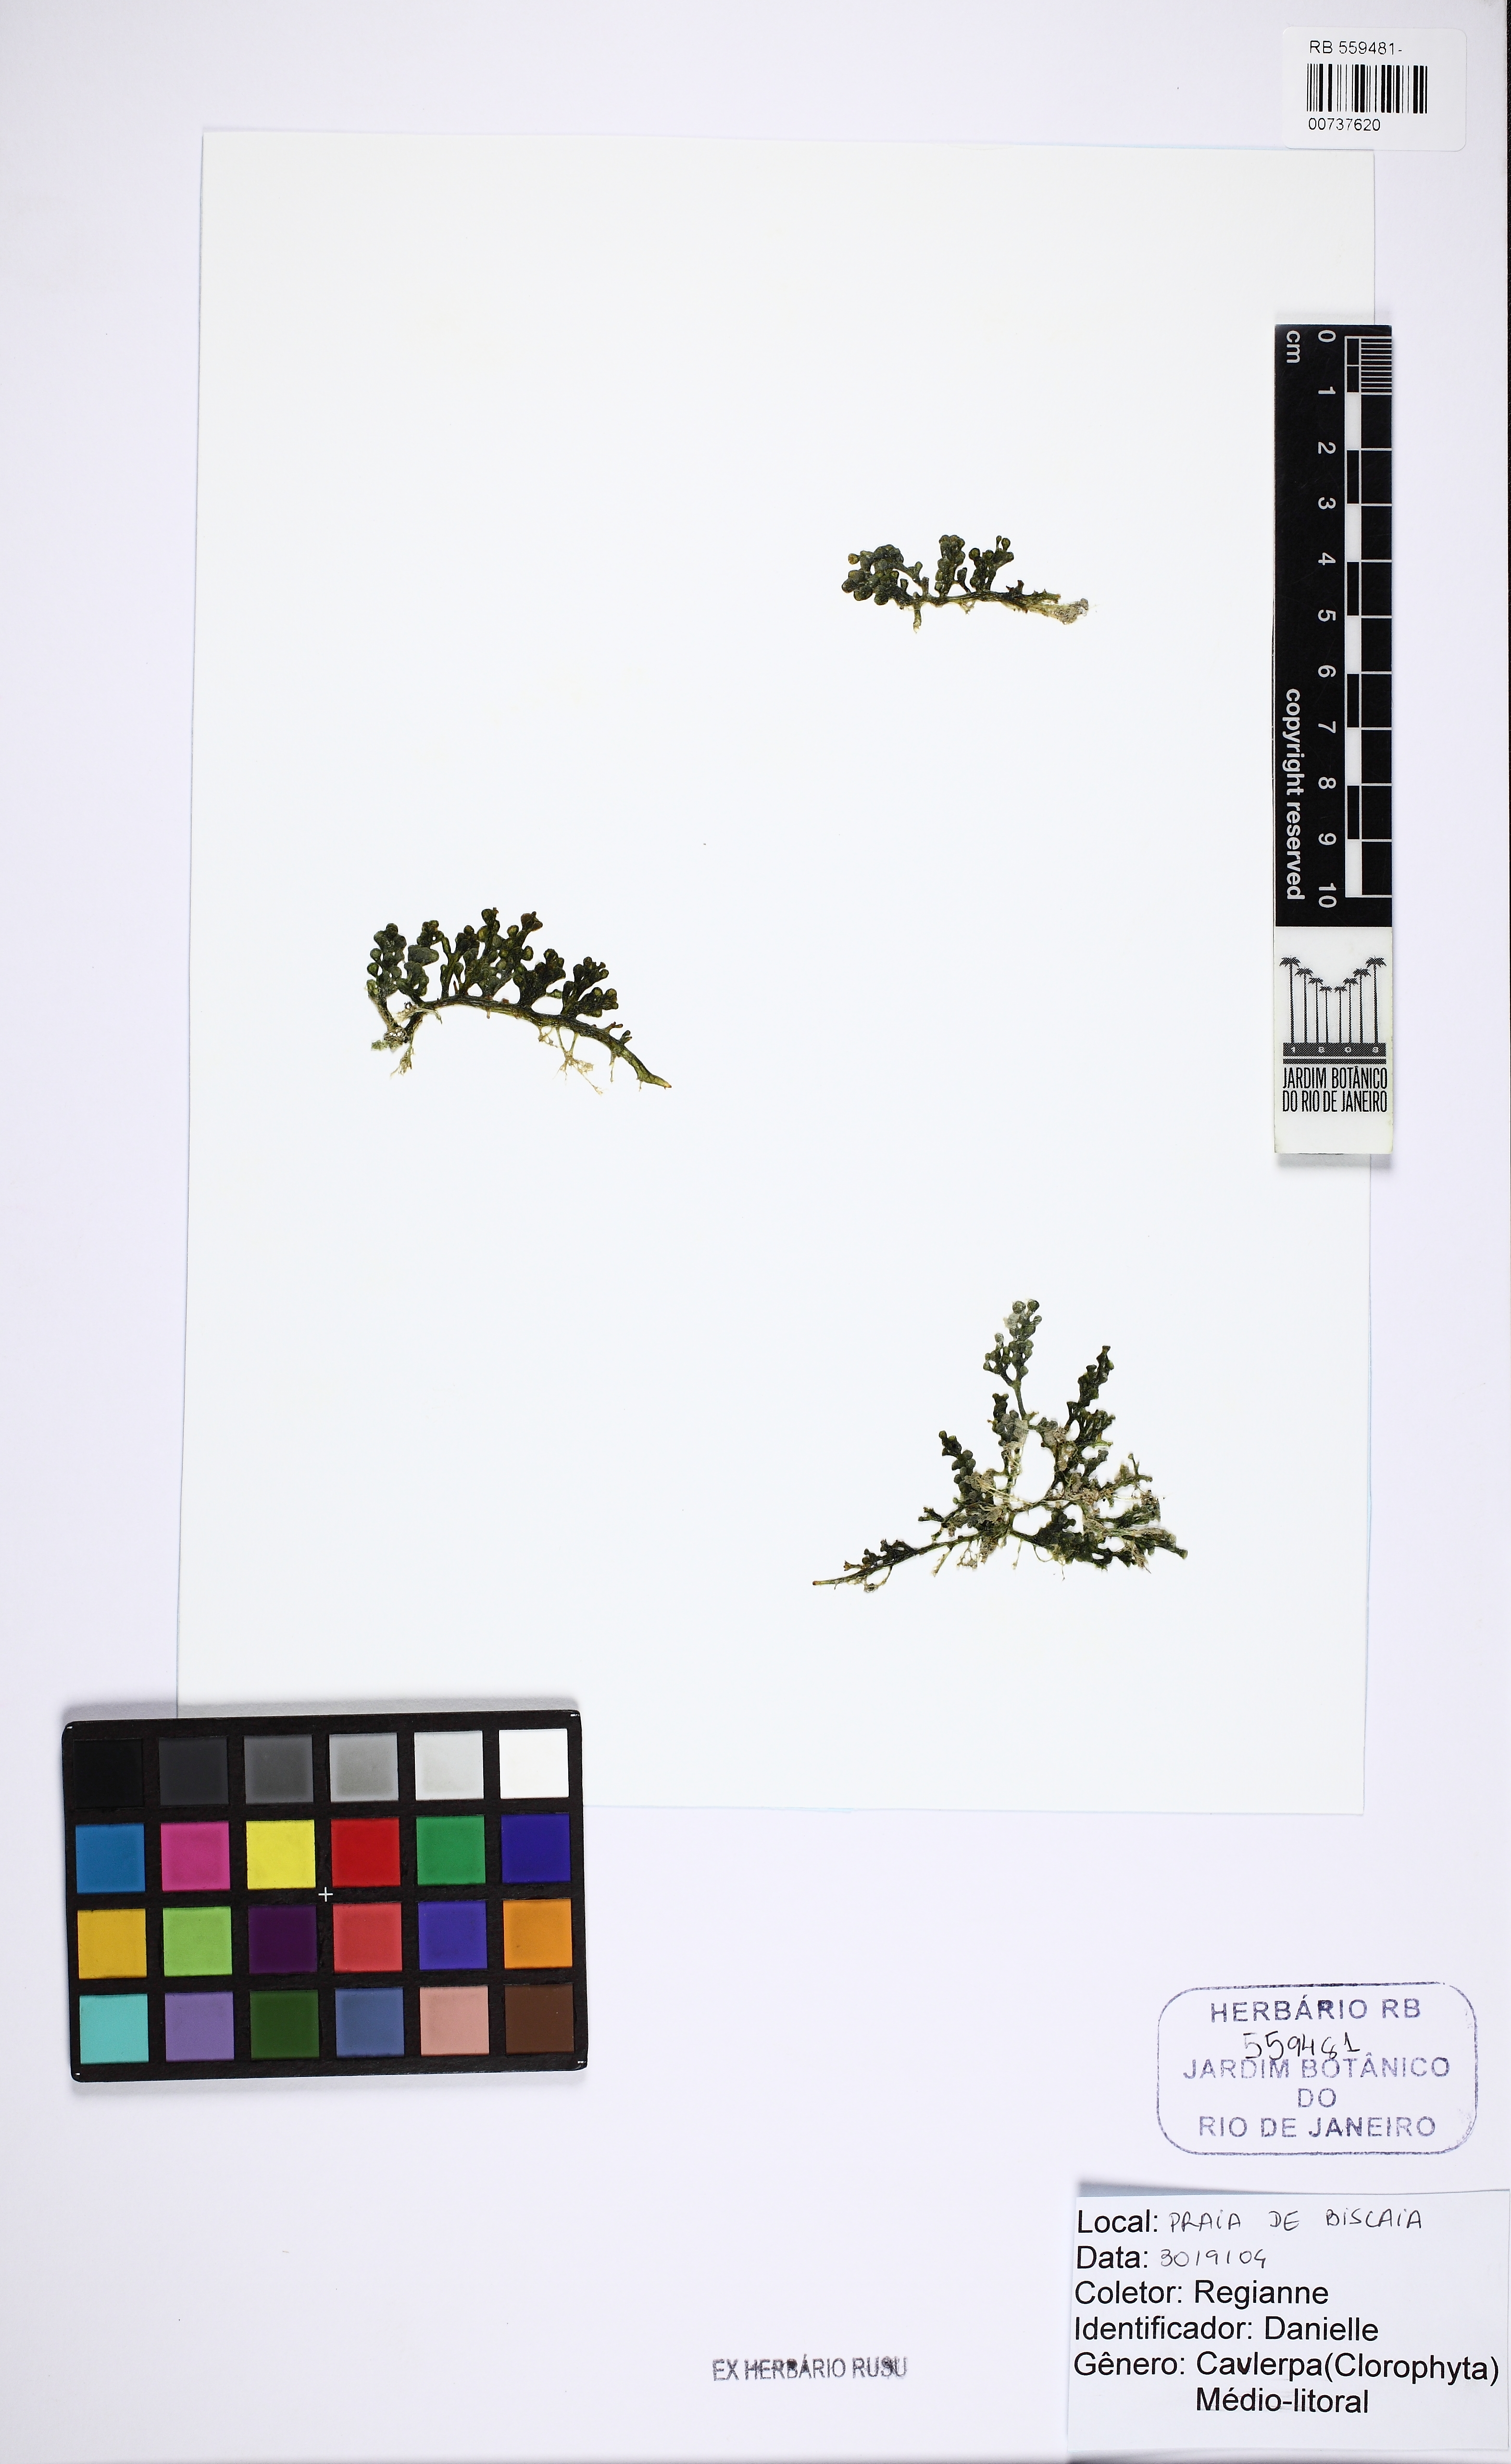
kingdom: Plantae
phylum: Chlorophyta
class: Ulvophyceae
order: Bryopsidales
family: Caulerpaceae
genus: Caulerpa
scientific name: Caulerpa
